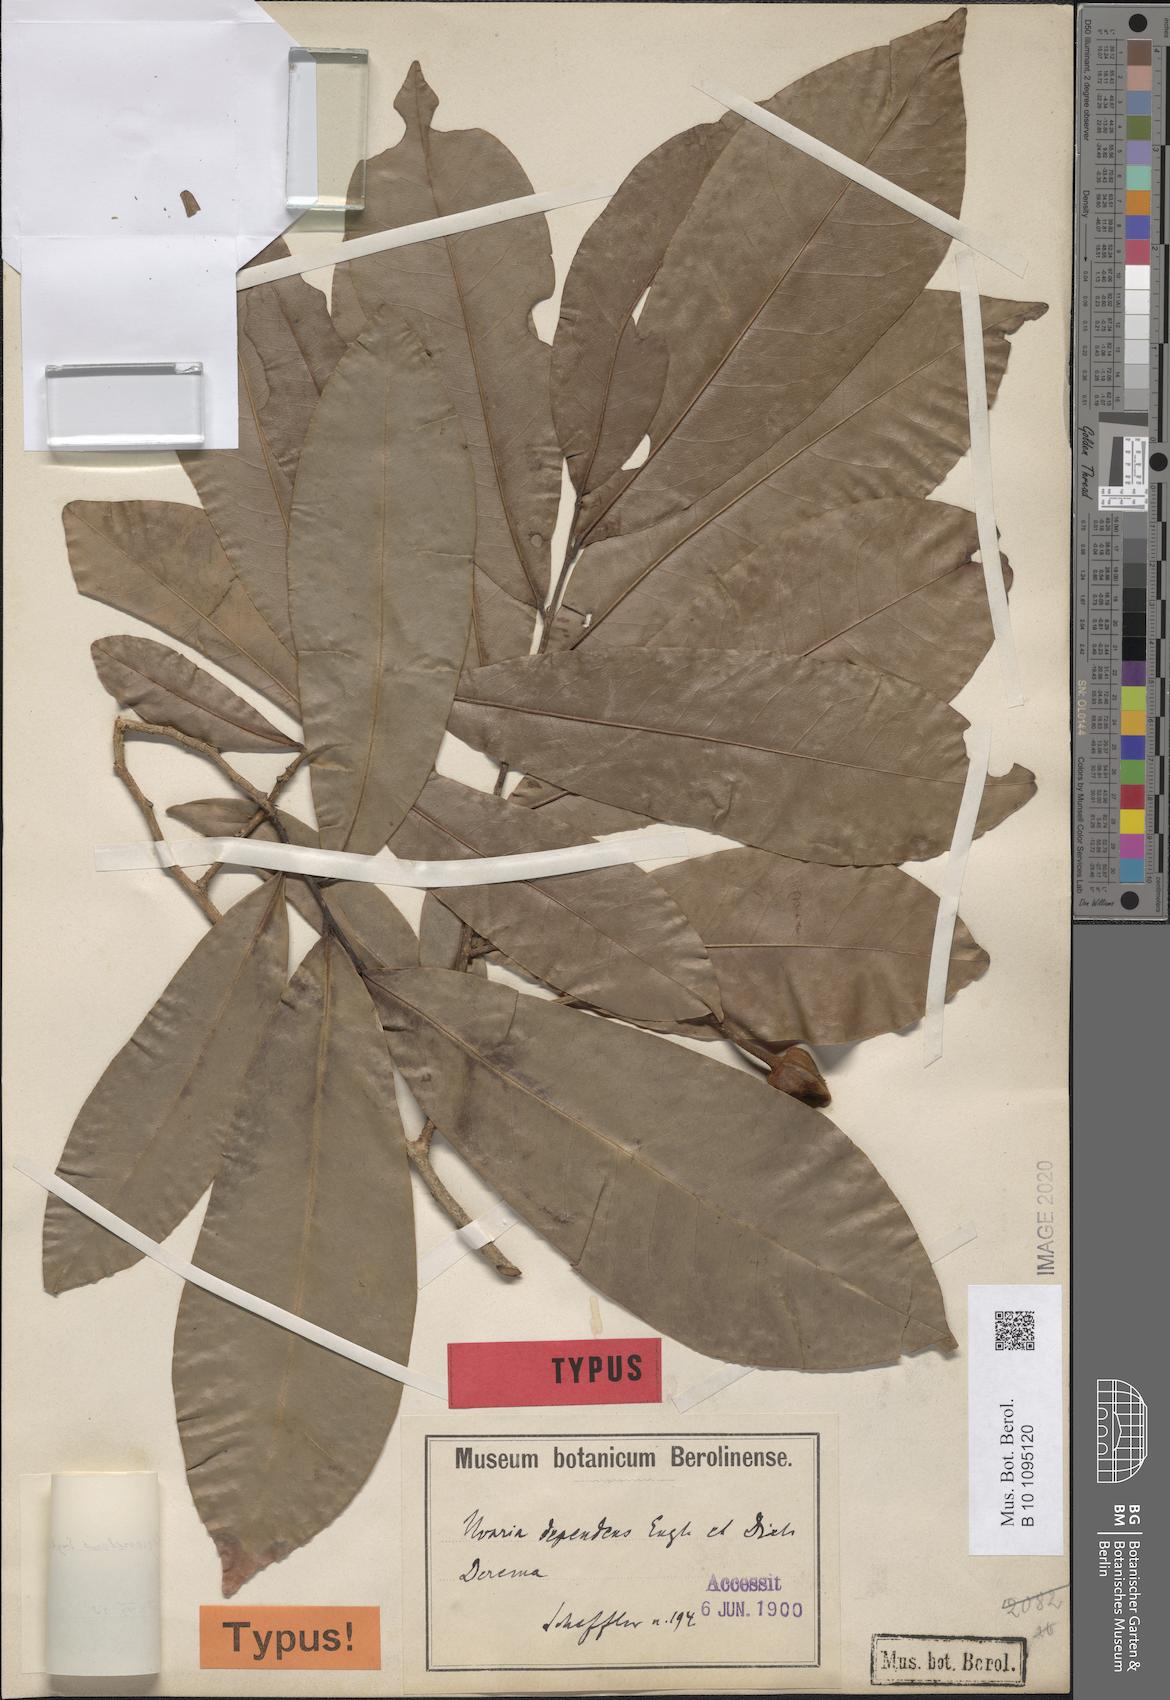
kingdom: Plantae
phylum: Tracheophyta
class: Magnoliopsida
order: Magnoliales
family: Annonaceae
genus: Uvariastrum
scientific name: Uvariastrum dependens
